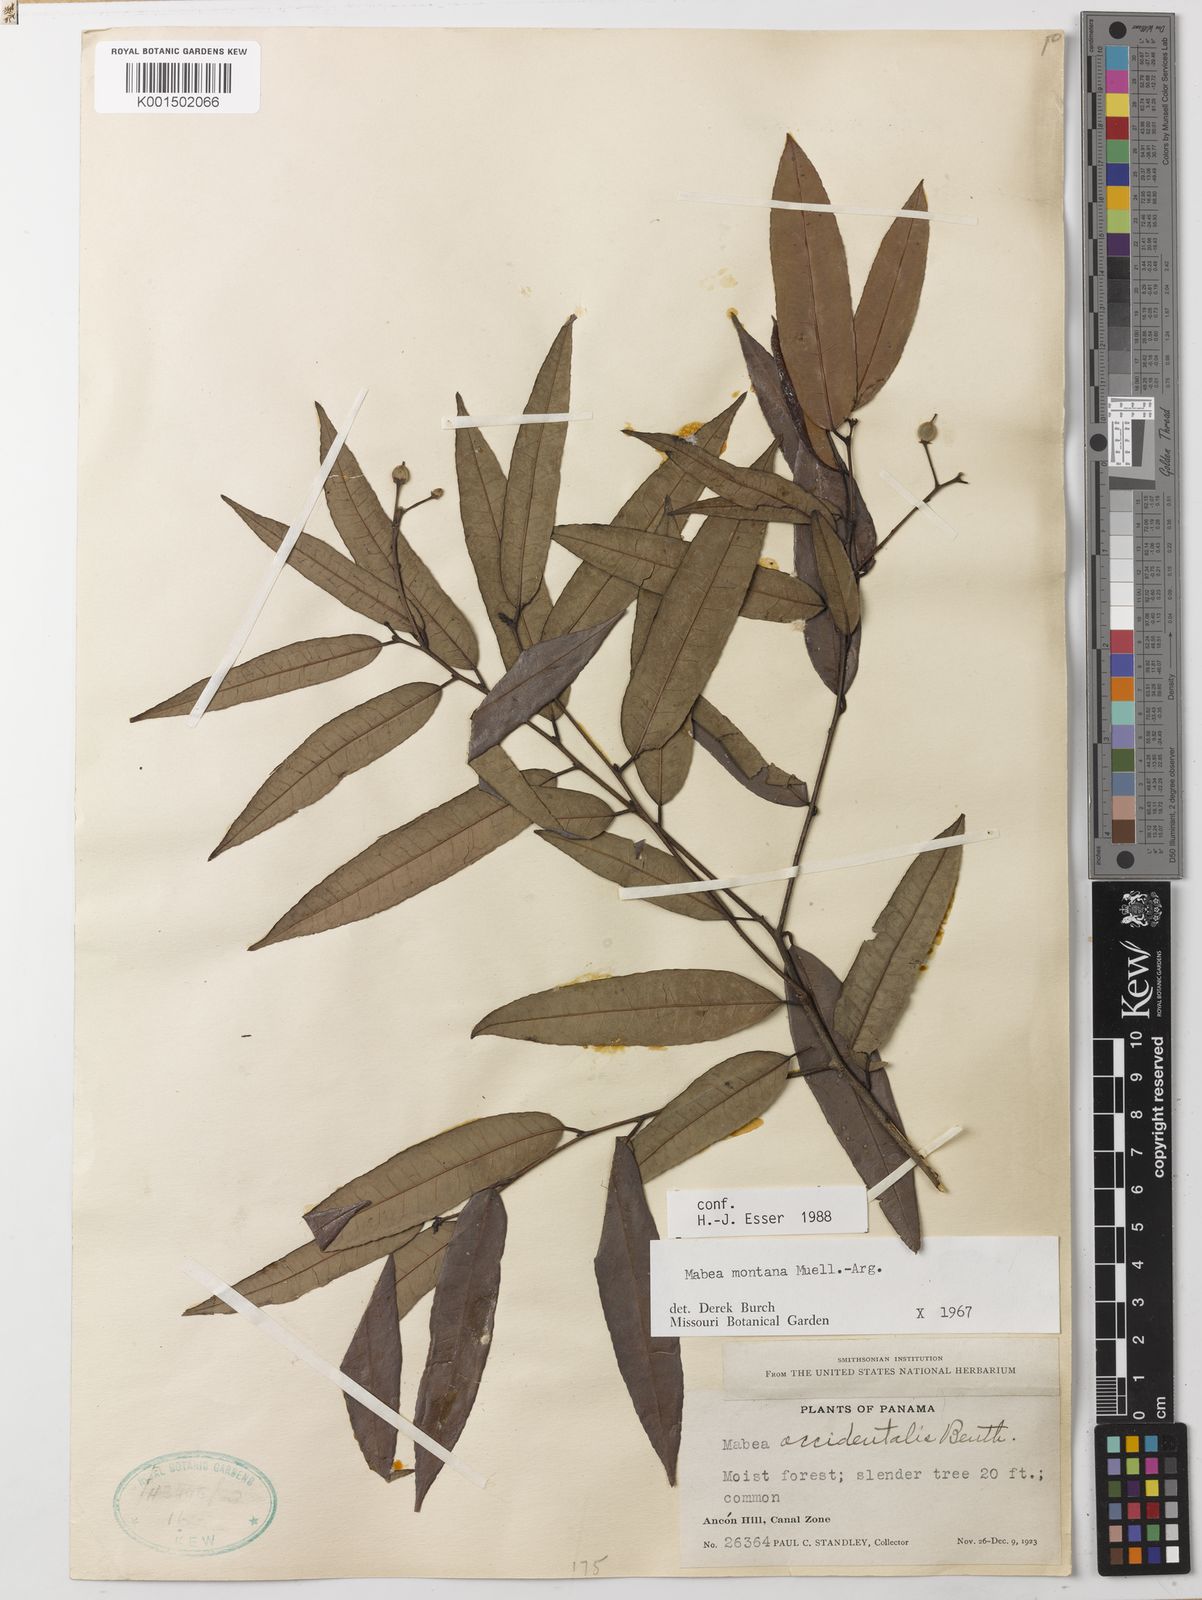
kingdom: Plantae
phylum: Tracheophyta
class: Magnoliopsida
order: Malpighiales
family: Euphorbiaceae
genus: Mabea
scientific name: Mabea montana
